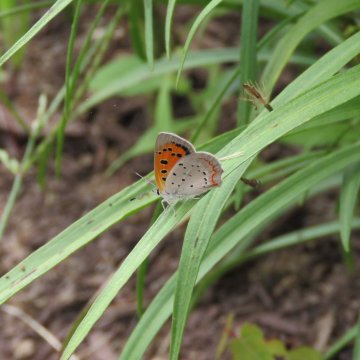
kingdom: Animalia
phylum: Arthropoda
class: Insecta
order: Lepidoptera
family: Lycaenidae
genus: Lycaena
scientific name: Lycaena phlaeas
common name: American Copper
